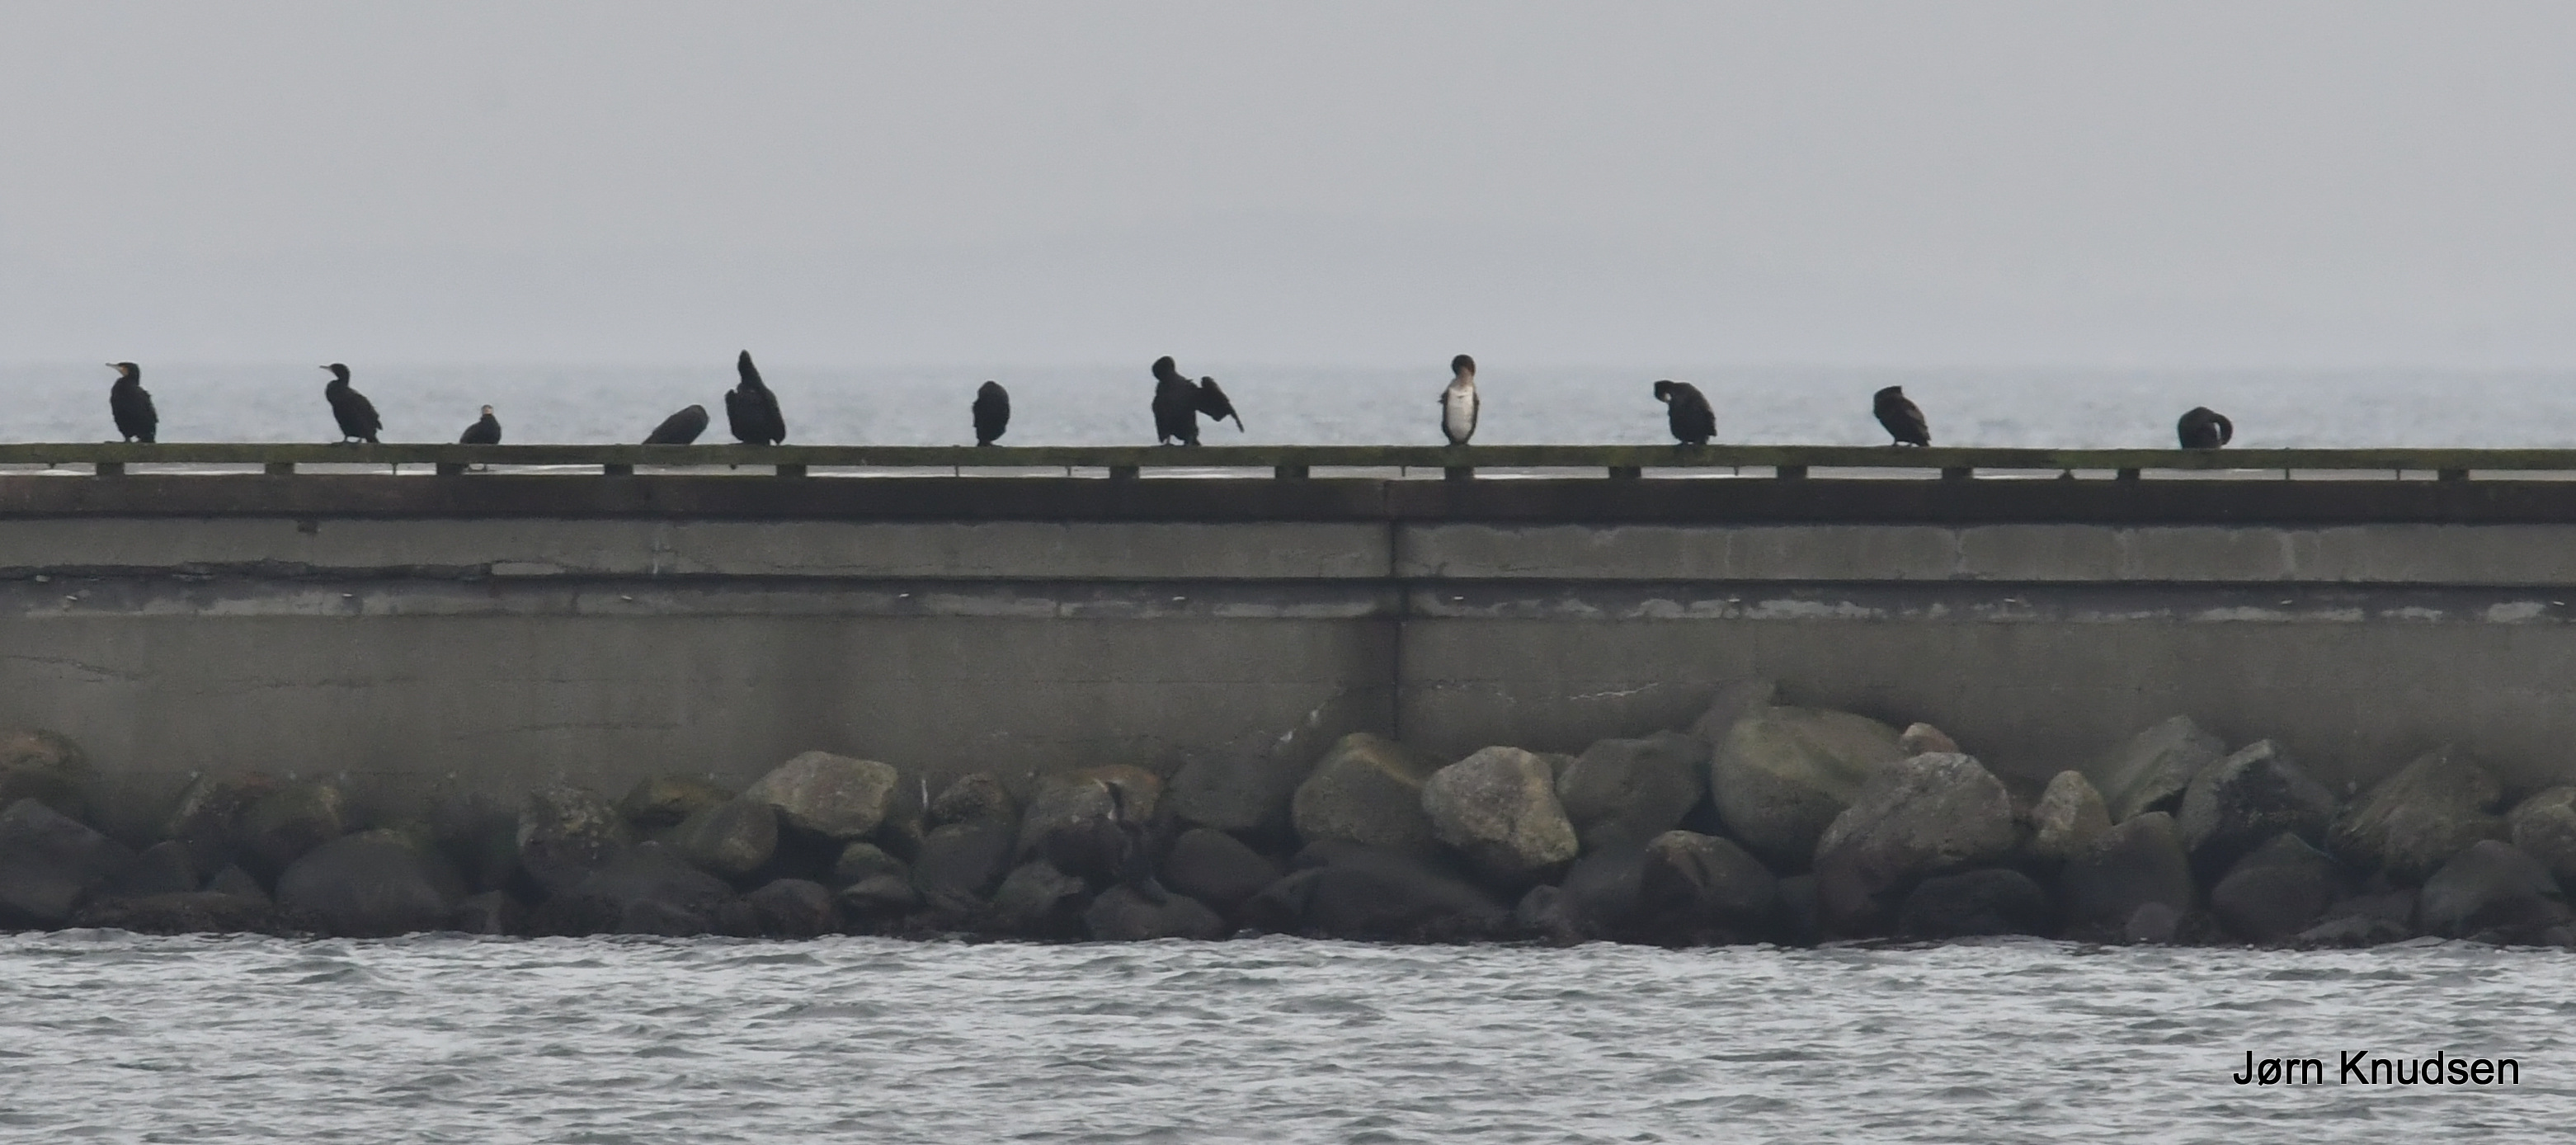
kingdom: Animalia
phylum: Chordata
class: Aves
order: Suliformes
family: Phalacrocoracidae
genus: Phalacrocorax
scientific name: Phalacrocorax carbo
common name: Skarv
